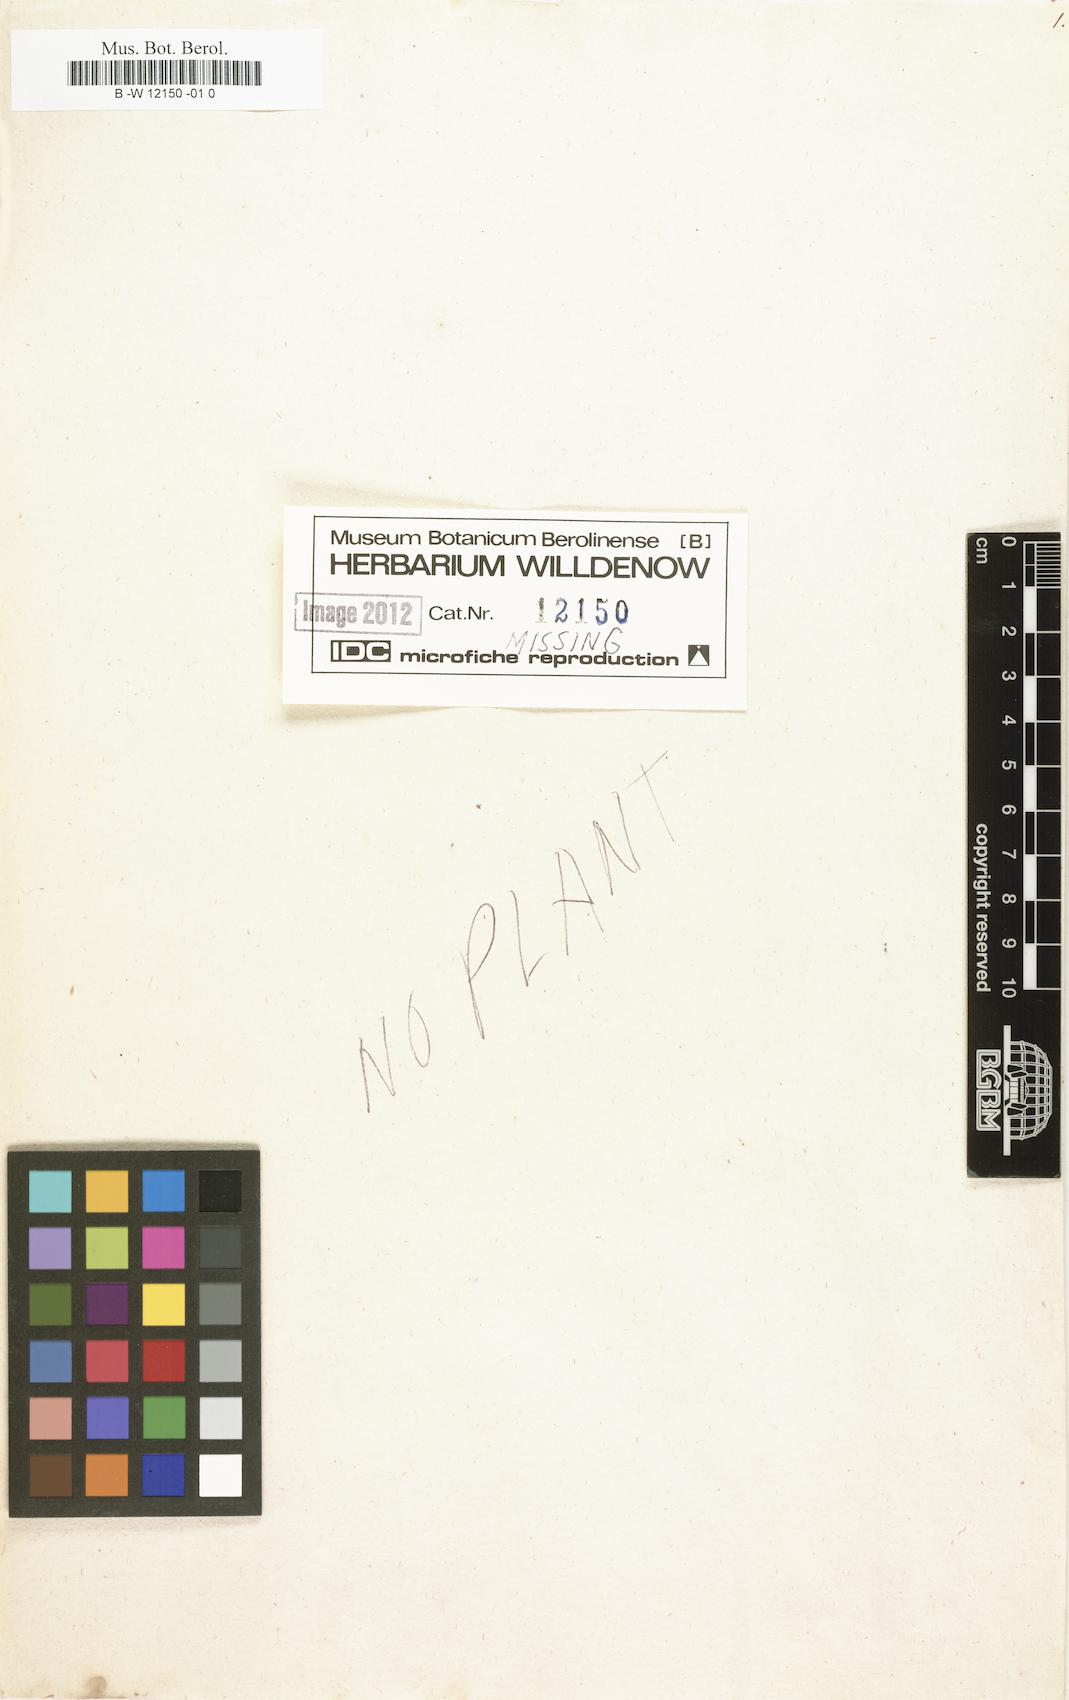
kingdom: Plantae
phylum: Tracheophyta
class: Magnoliopsida
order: Brassicales
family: Brassicaceae
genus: Marcuskochia
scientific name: Marcuskochia ramosissima
